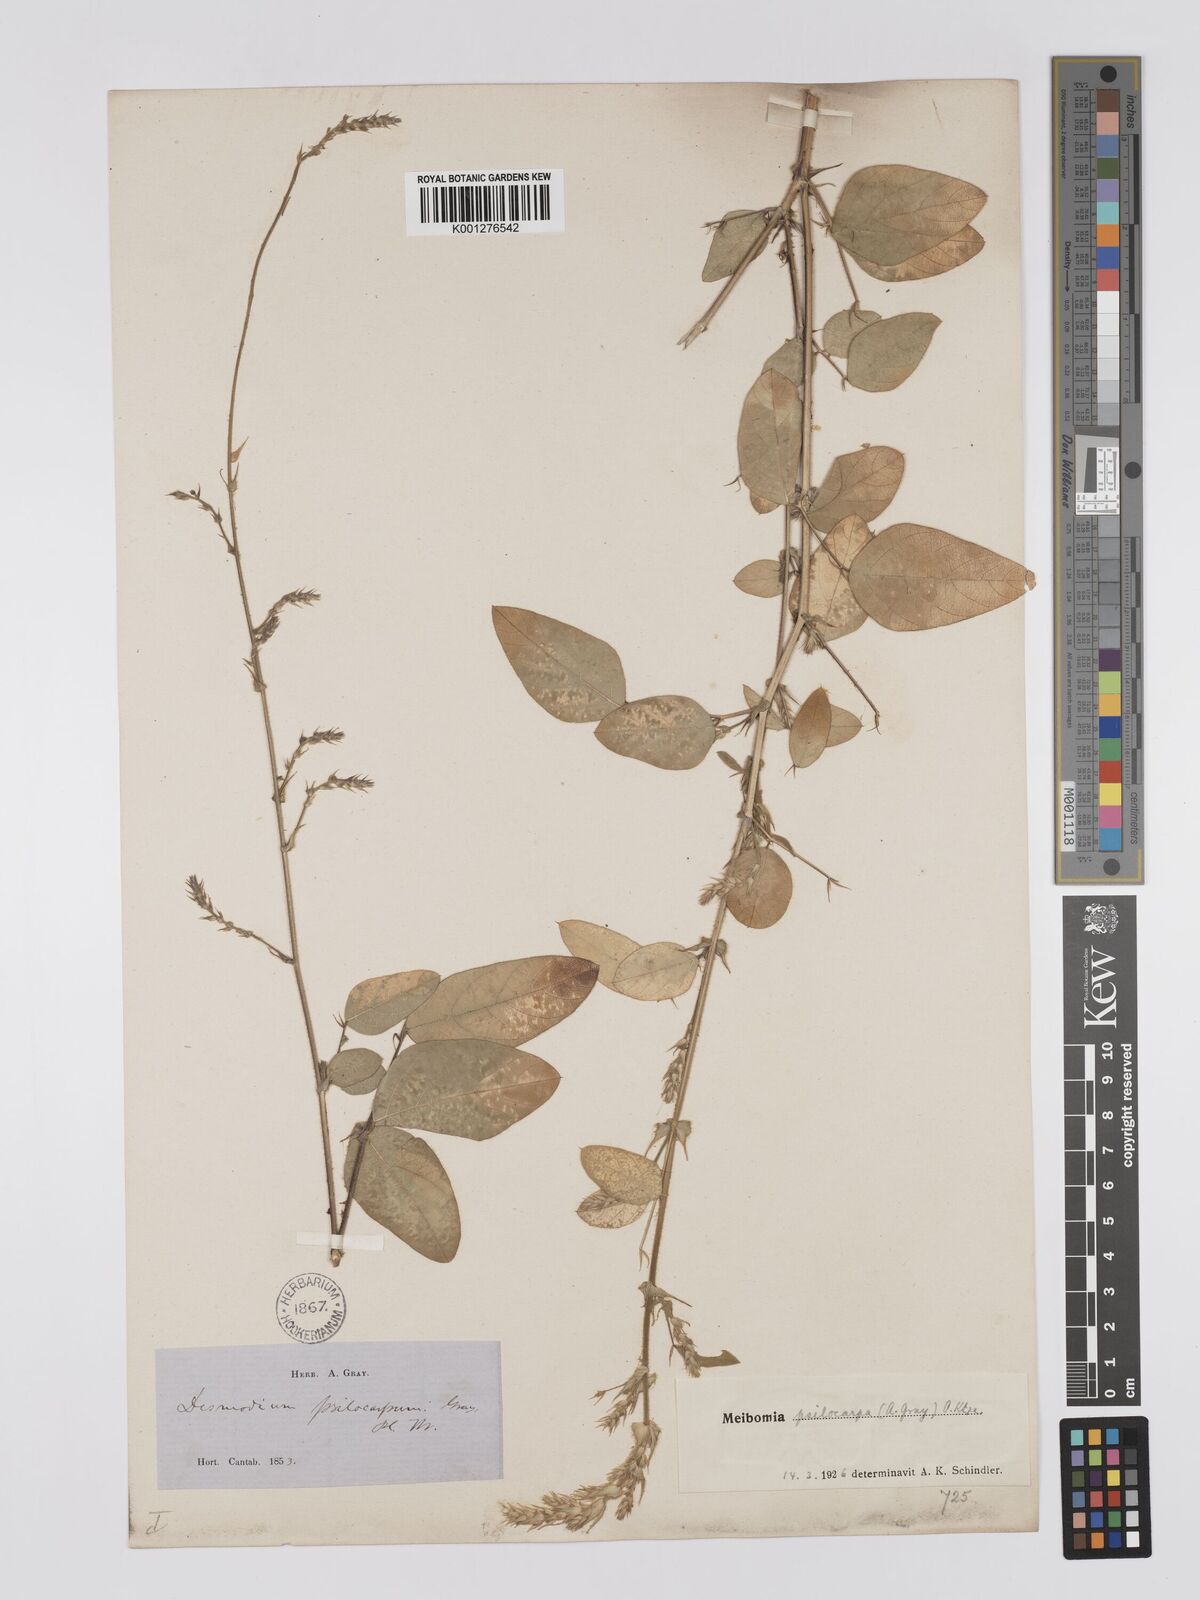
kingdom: Plantae
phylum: Tracheophyta
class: Magnoliopsida
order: Fabales
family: Fabaceae
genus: Desmodium
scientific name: Desmodium psilocarpum
